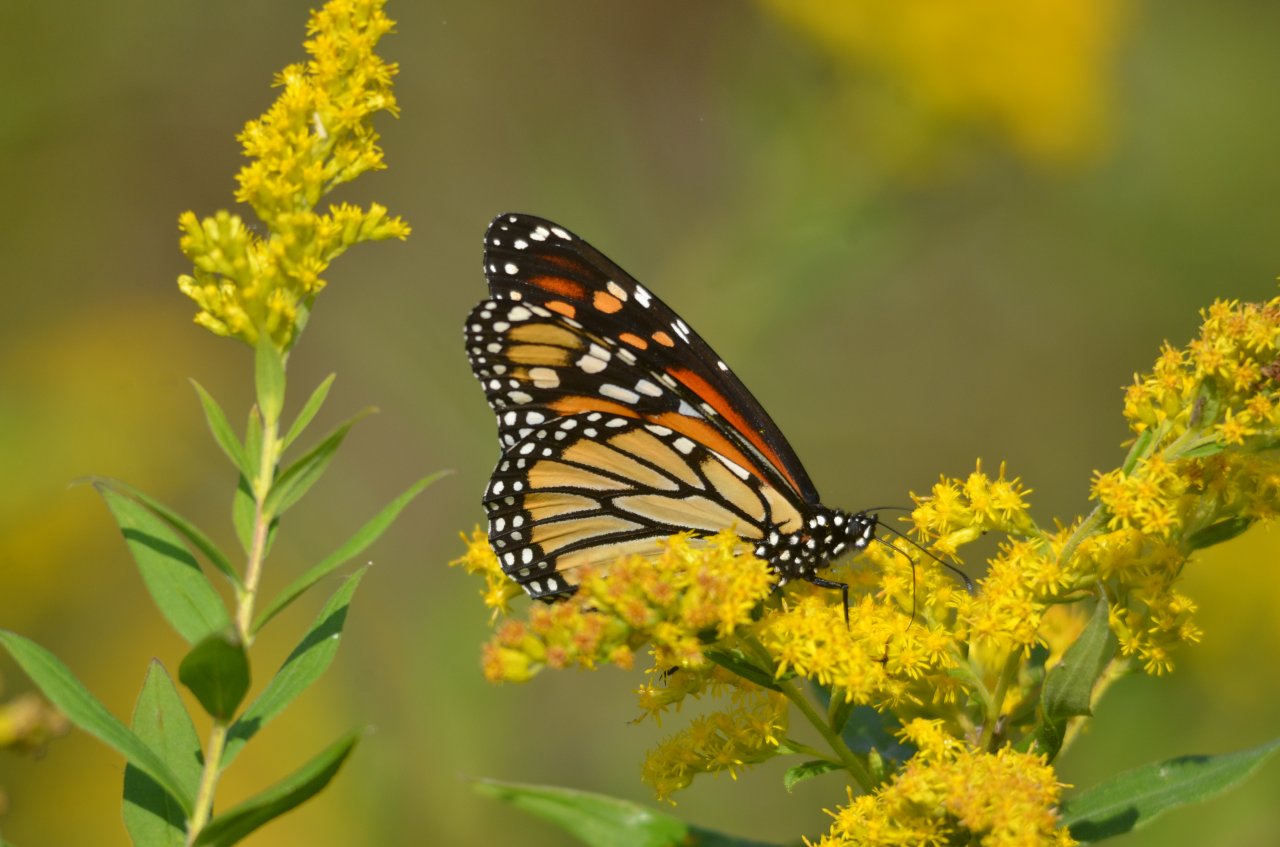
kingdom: Animalia
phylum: Arthropoda
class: Insecta
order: Lepidoptera
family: Nymphalidae
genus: Danaus
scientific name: Danaus plexippus
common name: Monarch
